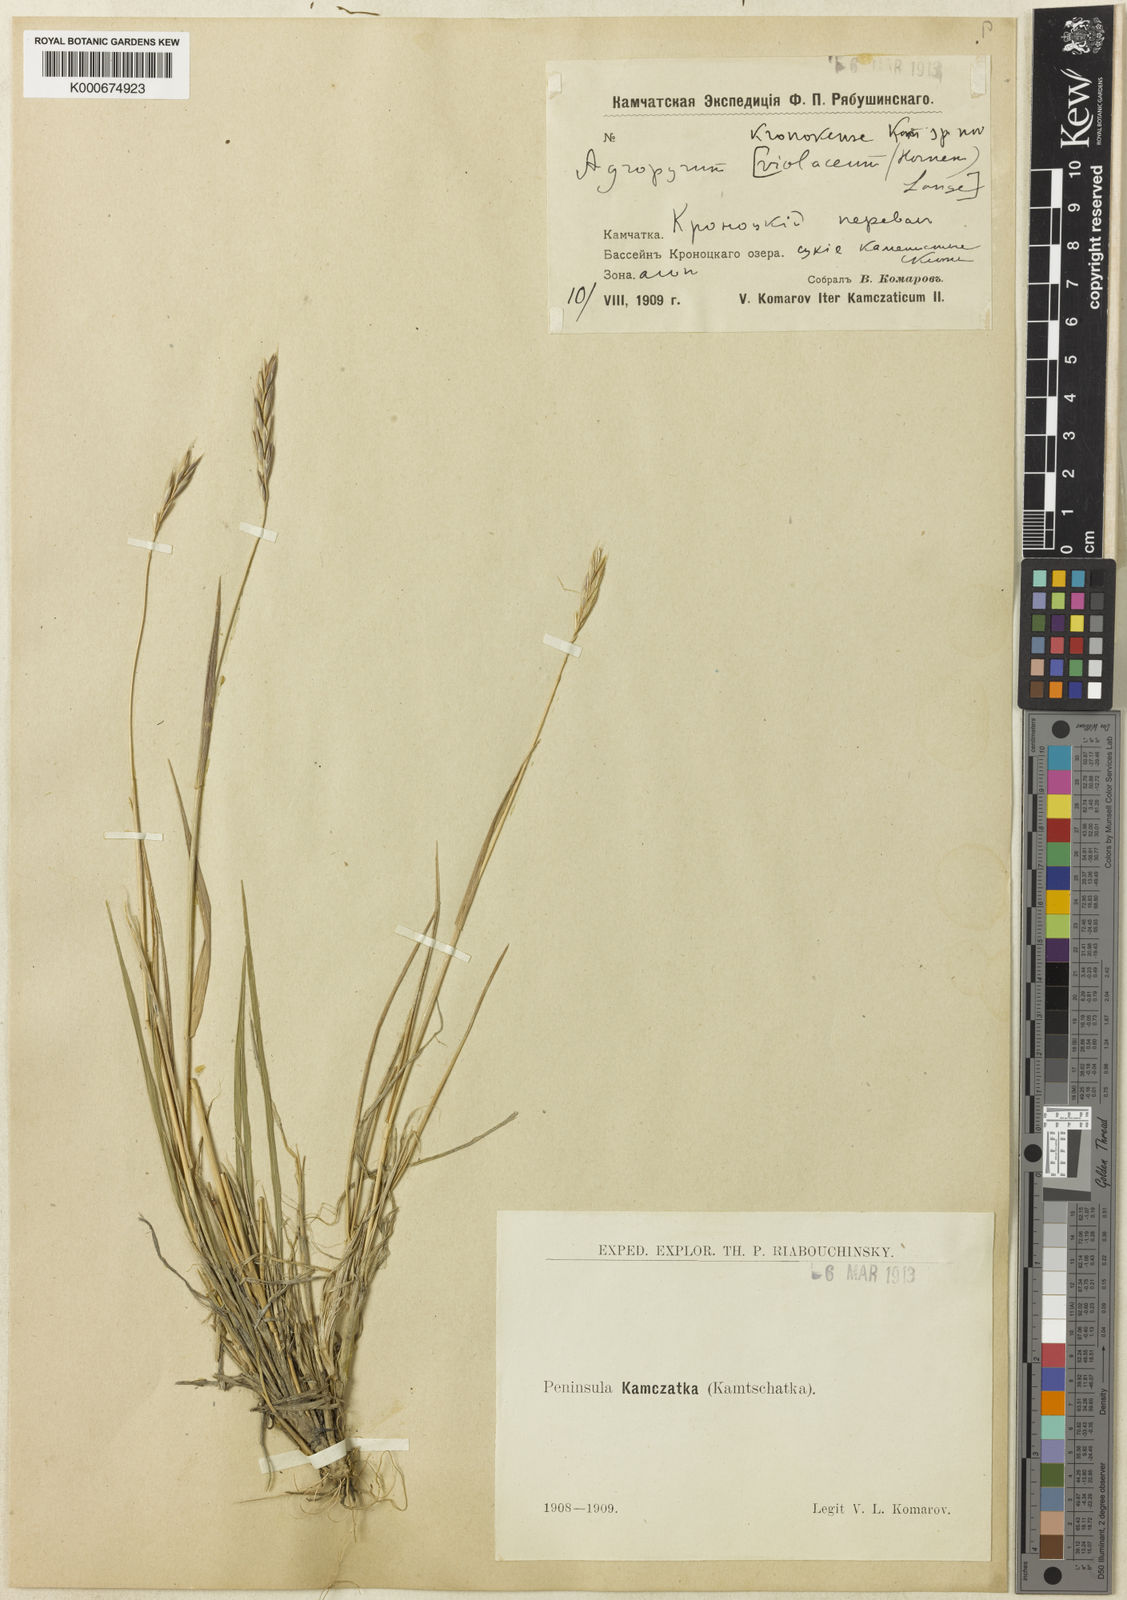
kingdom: Plantae
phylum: Tracheophyta
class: Liliopsida
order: Poales
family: Poaceae
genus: Elymus
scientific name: Elymus macrourus
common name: Northern wheatgrass
